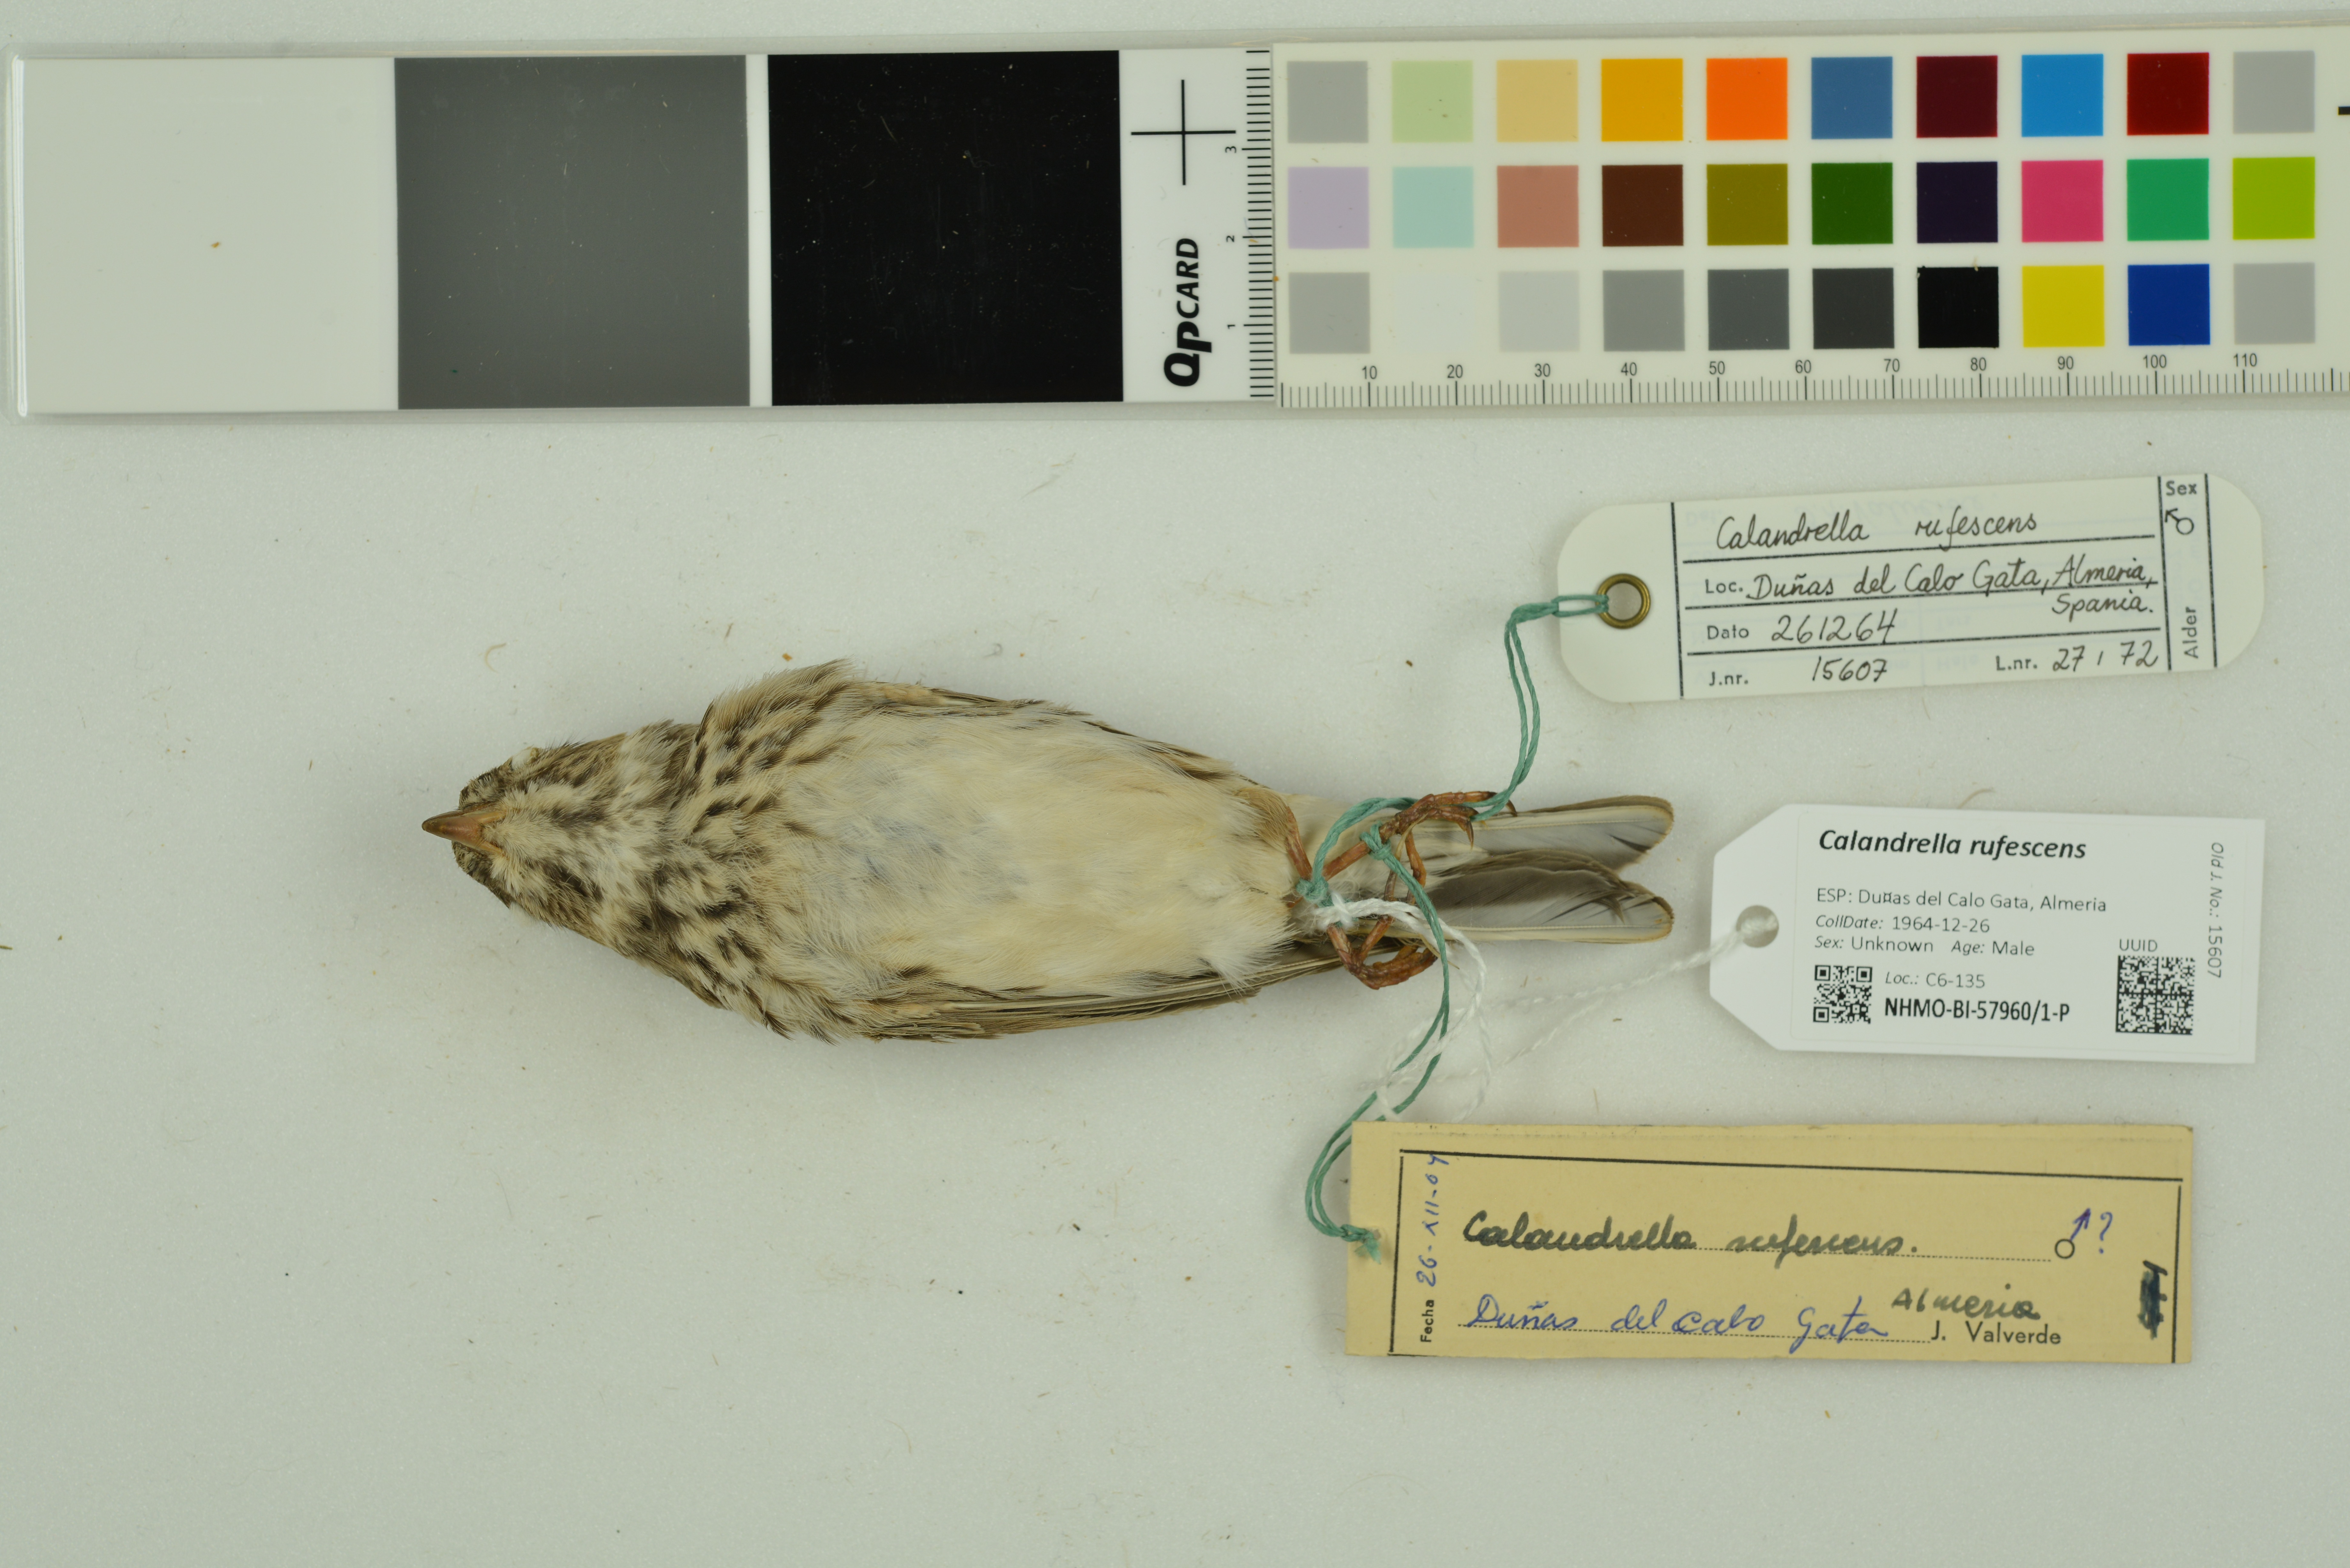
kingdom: Animalia
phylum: Chordata
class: Aves
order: Passeriformes
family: Alaudidae
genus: Calandrella
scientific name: Calandrella rufescens
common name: Lesser short-toed lark
